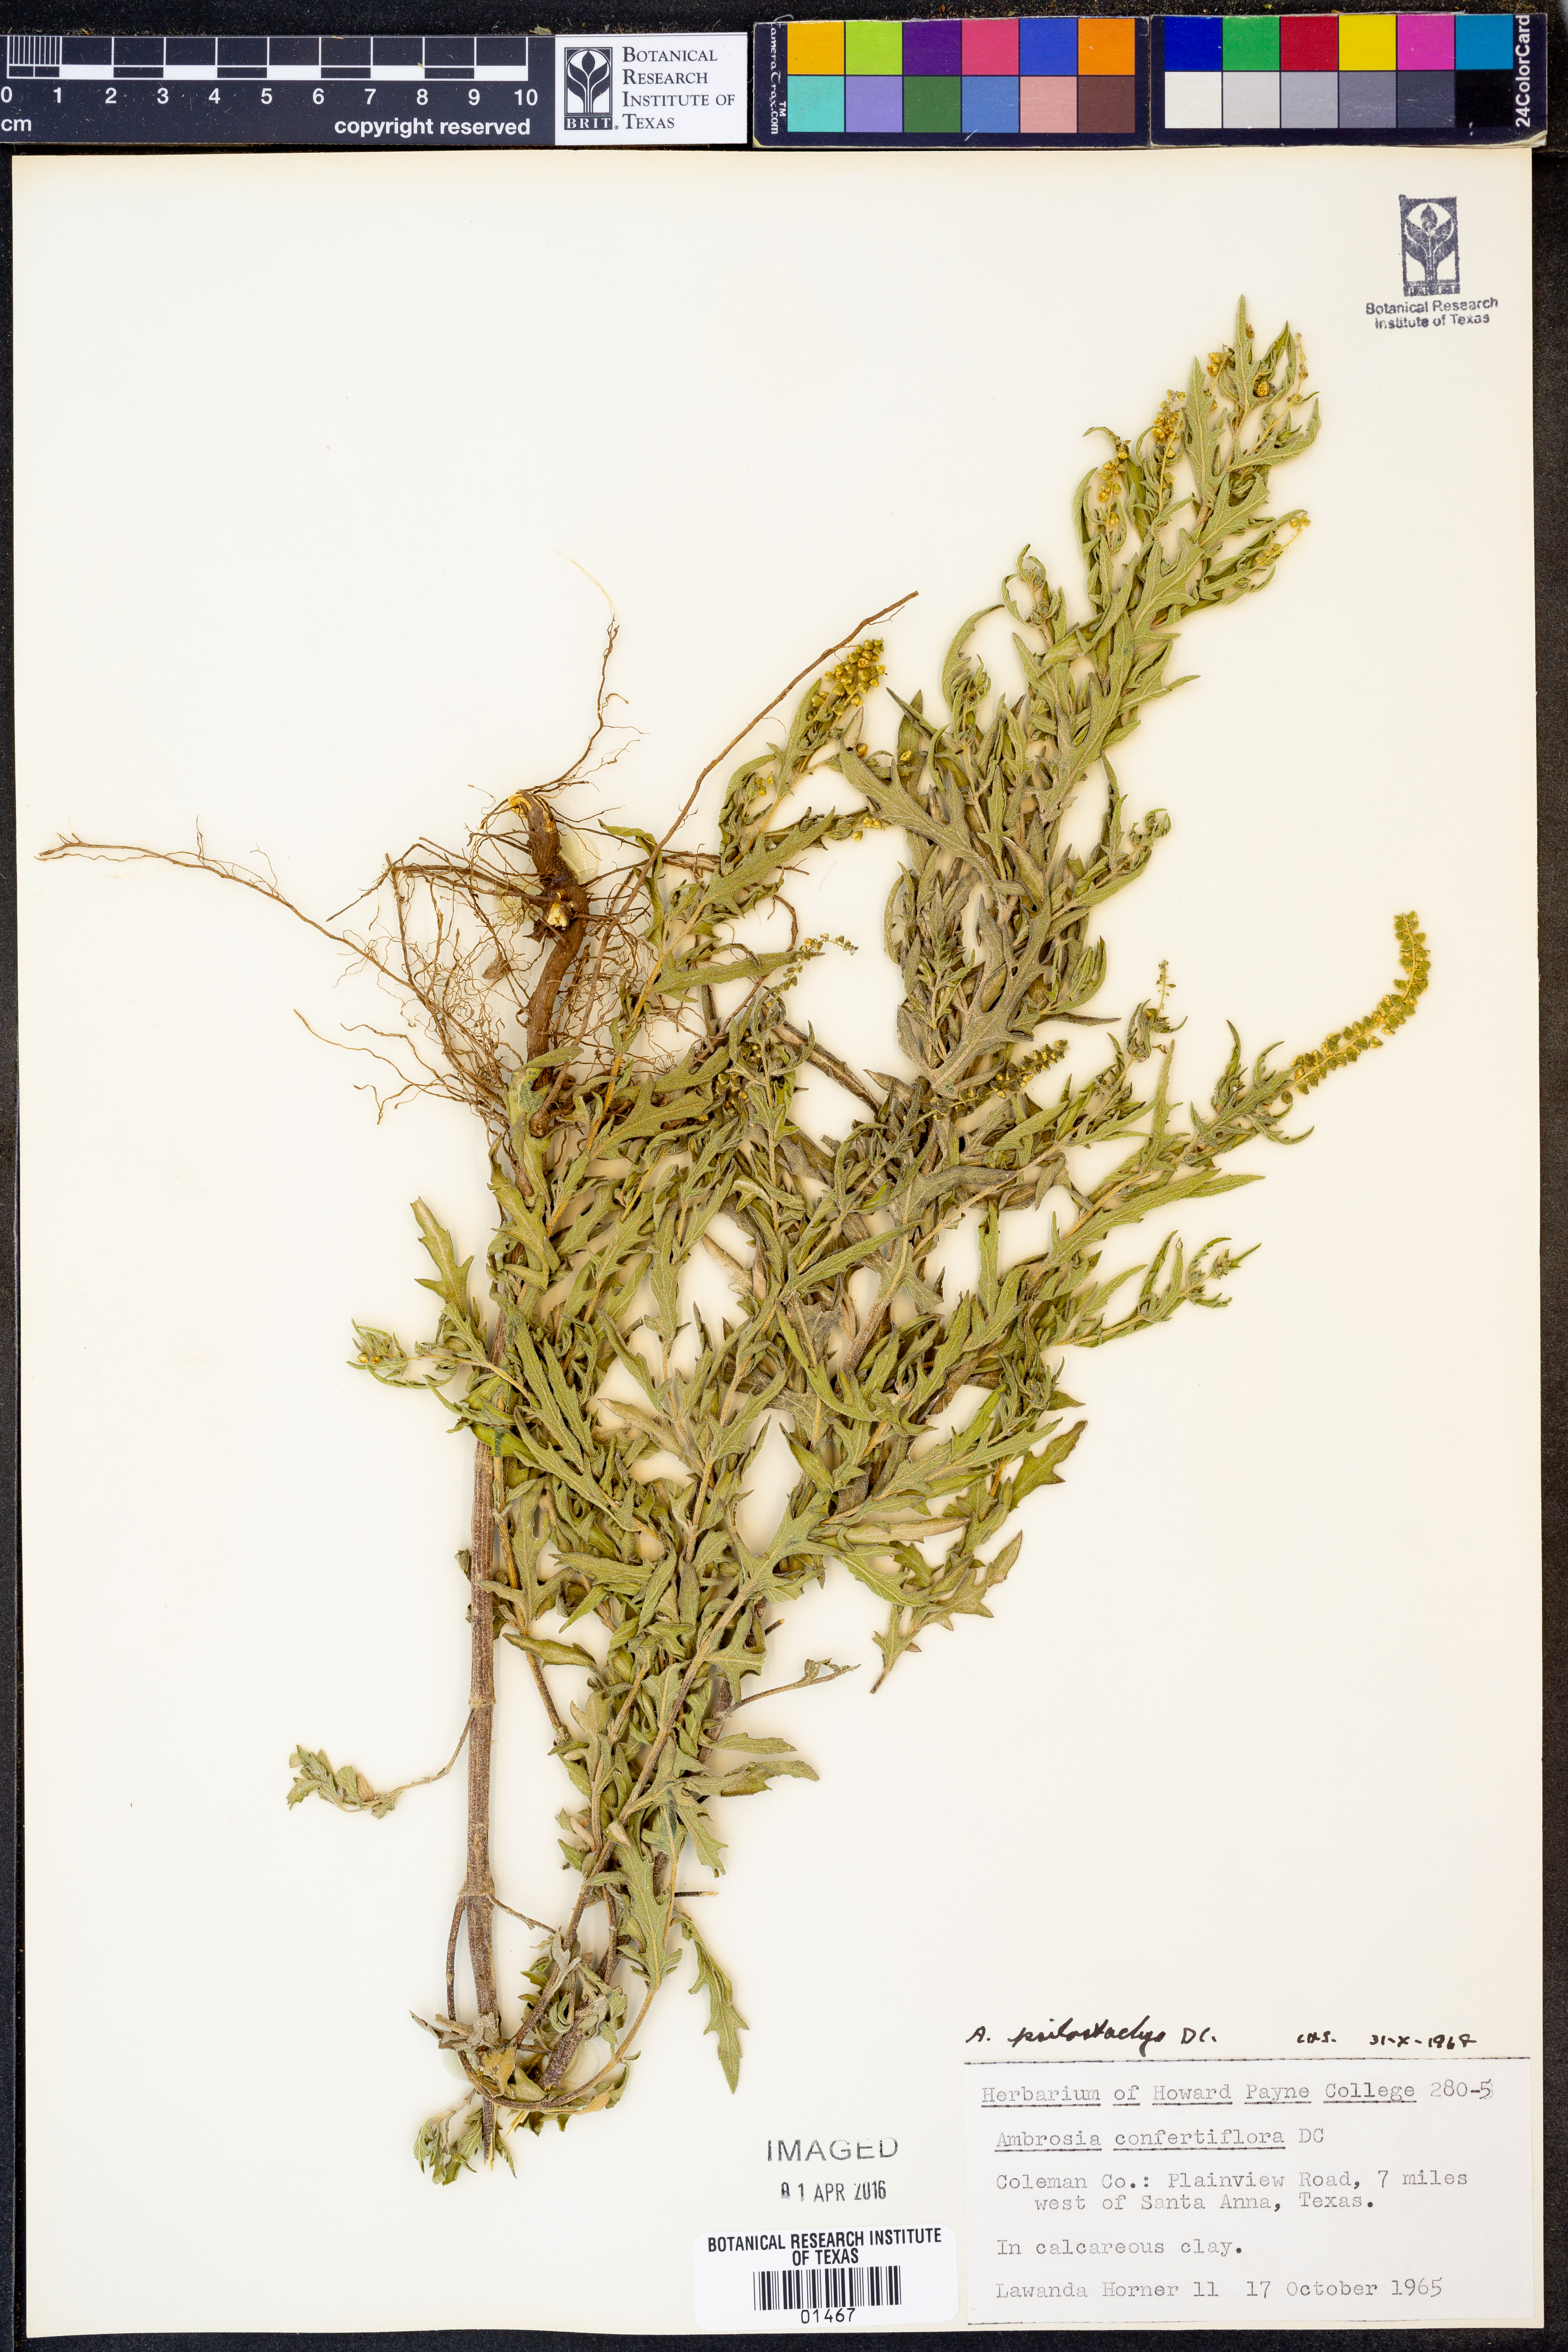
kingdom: Plantae
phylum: Tracheophyta
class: Magnoliopsida
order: Asterales
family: Asteraceae
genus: Ambrosia
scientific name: Ambrosia psilostachya
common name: Perennial ragweed
